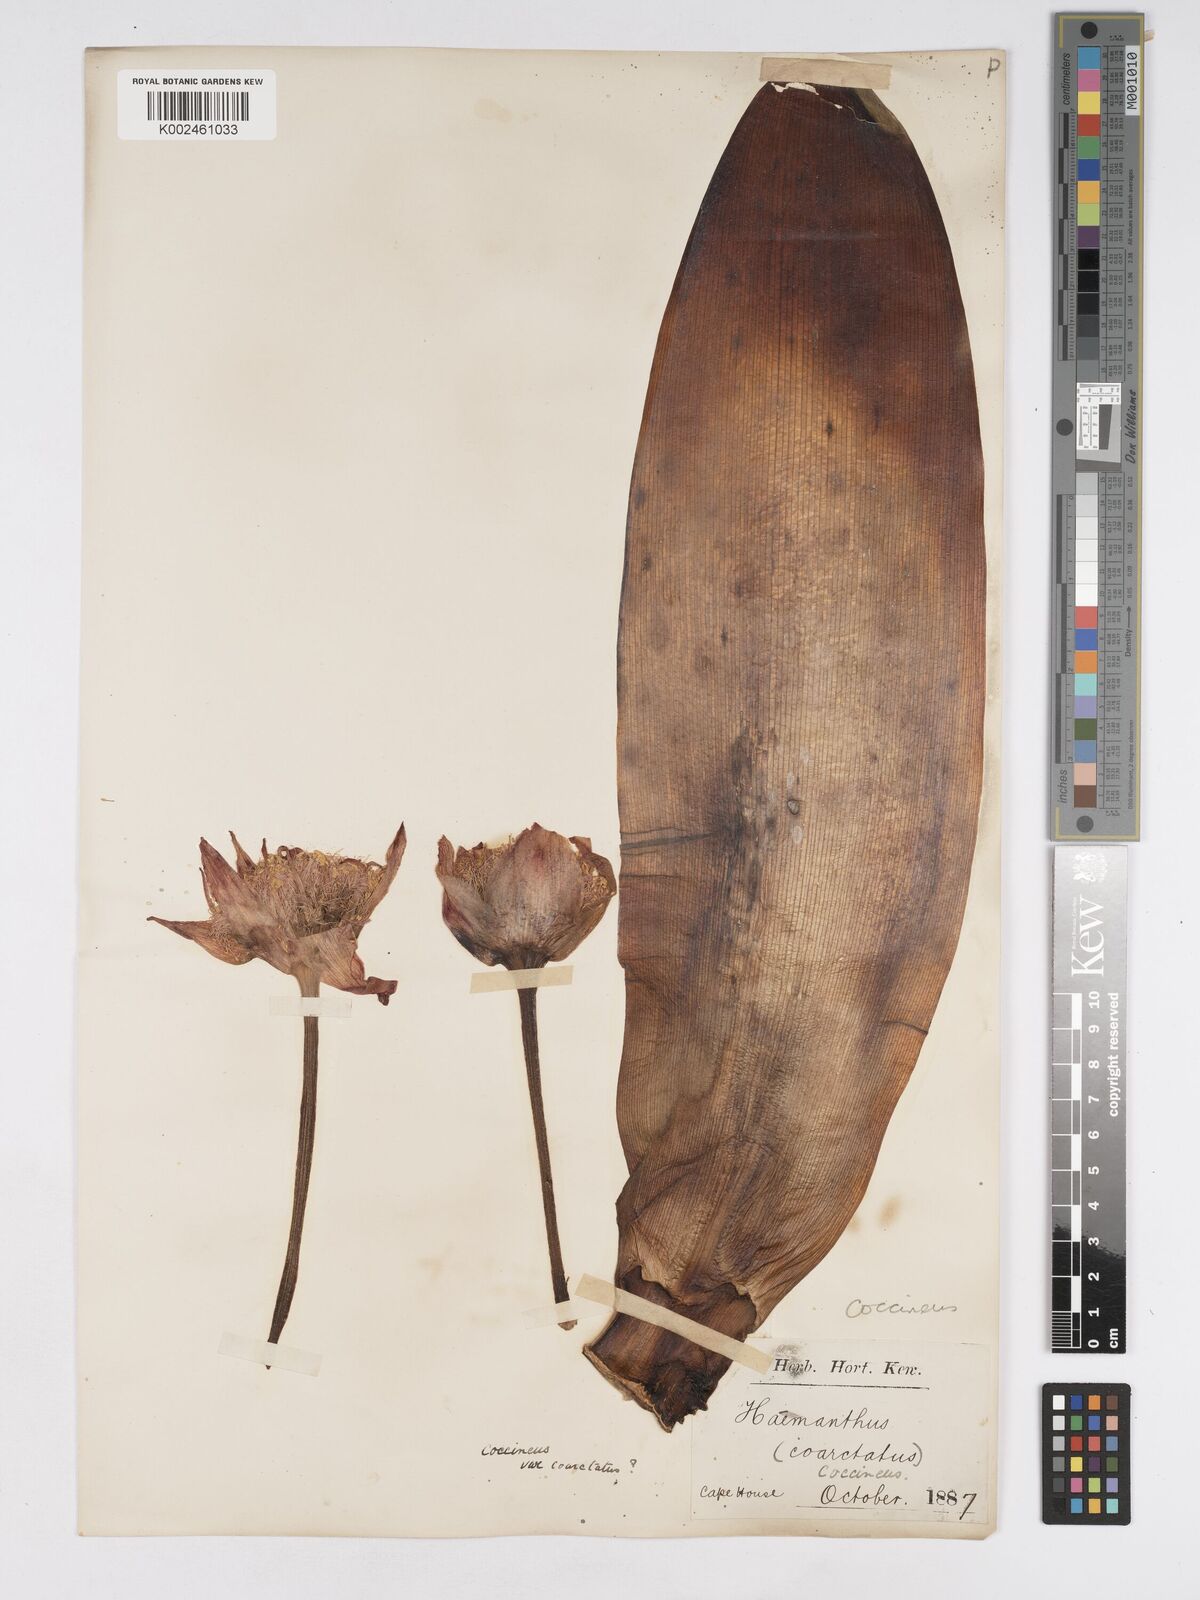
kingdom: Plantae
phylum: Tracheophyta
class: Liliopsida
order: Asparagales
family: Amaryllidaceae
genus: Haemanthus
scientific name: Haemanthus coccineus
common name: Cape-tulip
